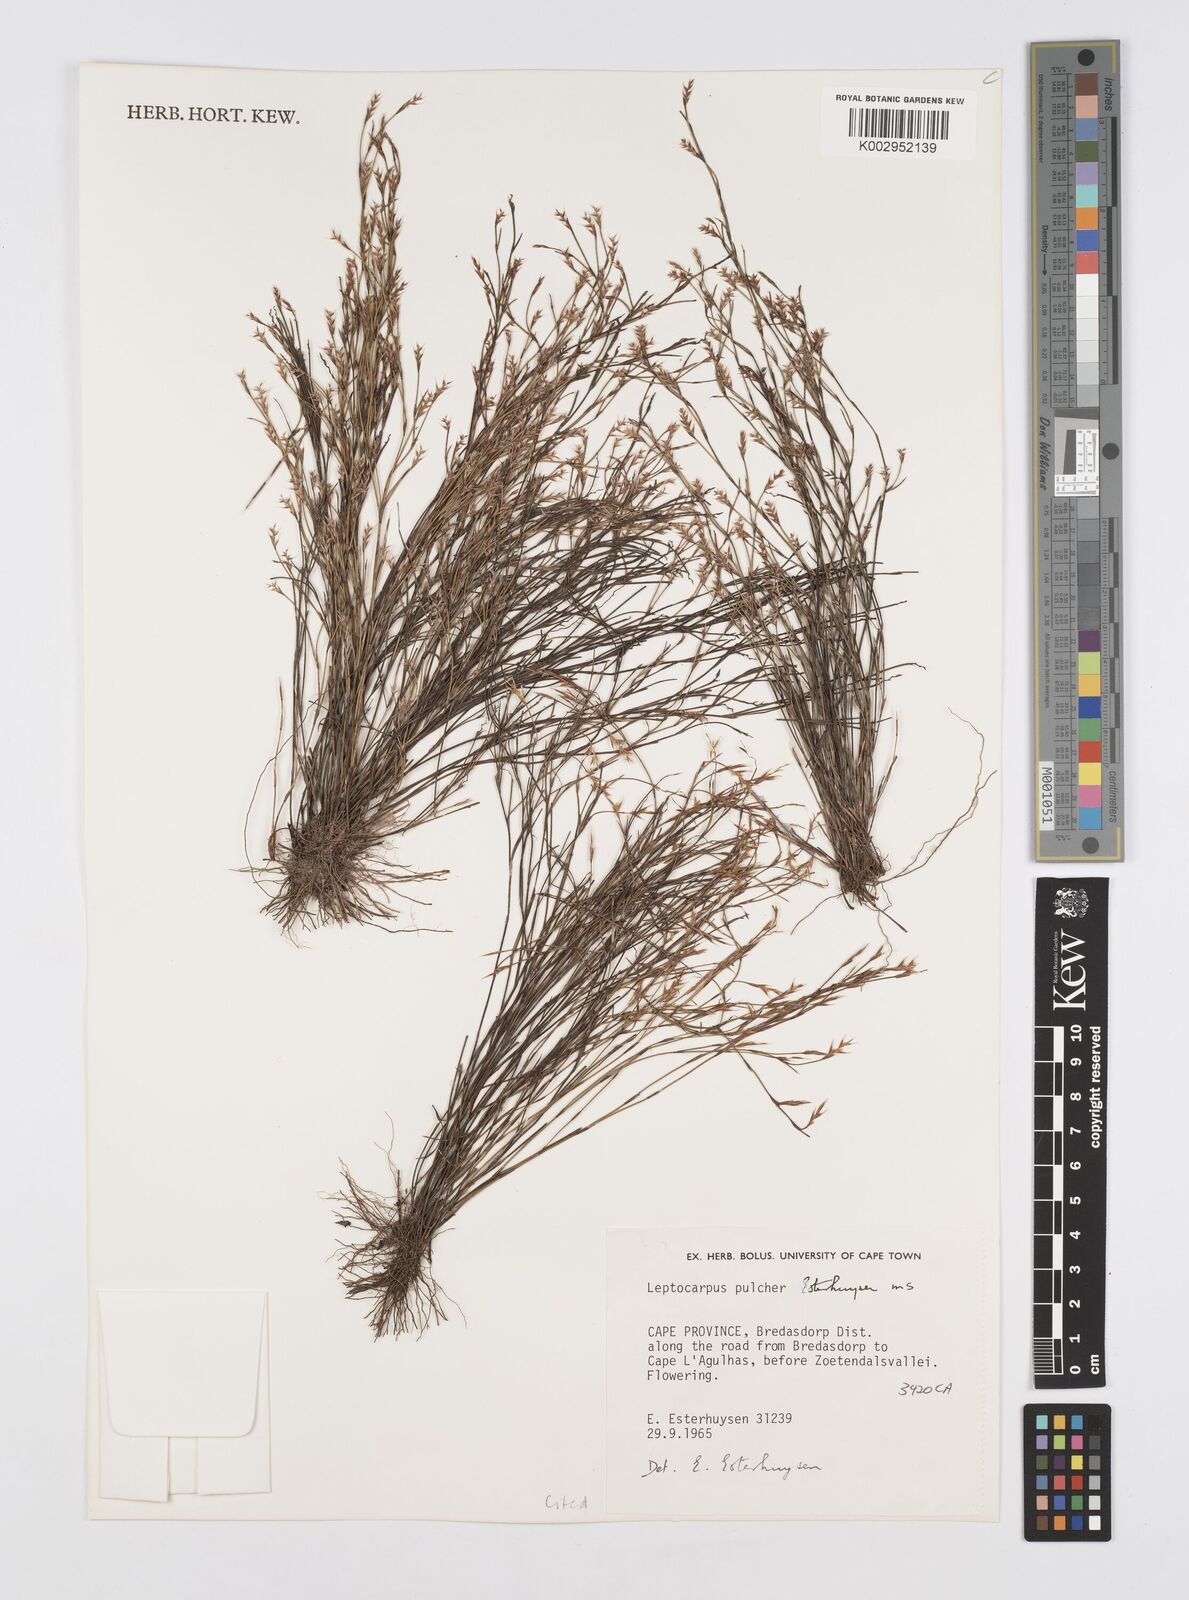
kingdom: Plantae
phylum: Tracheophyta
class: Liliopsida
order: Poales
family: Restionaceae
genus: Restio
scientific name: Restio pulcher
